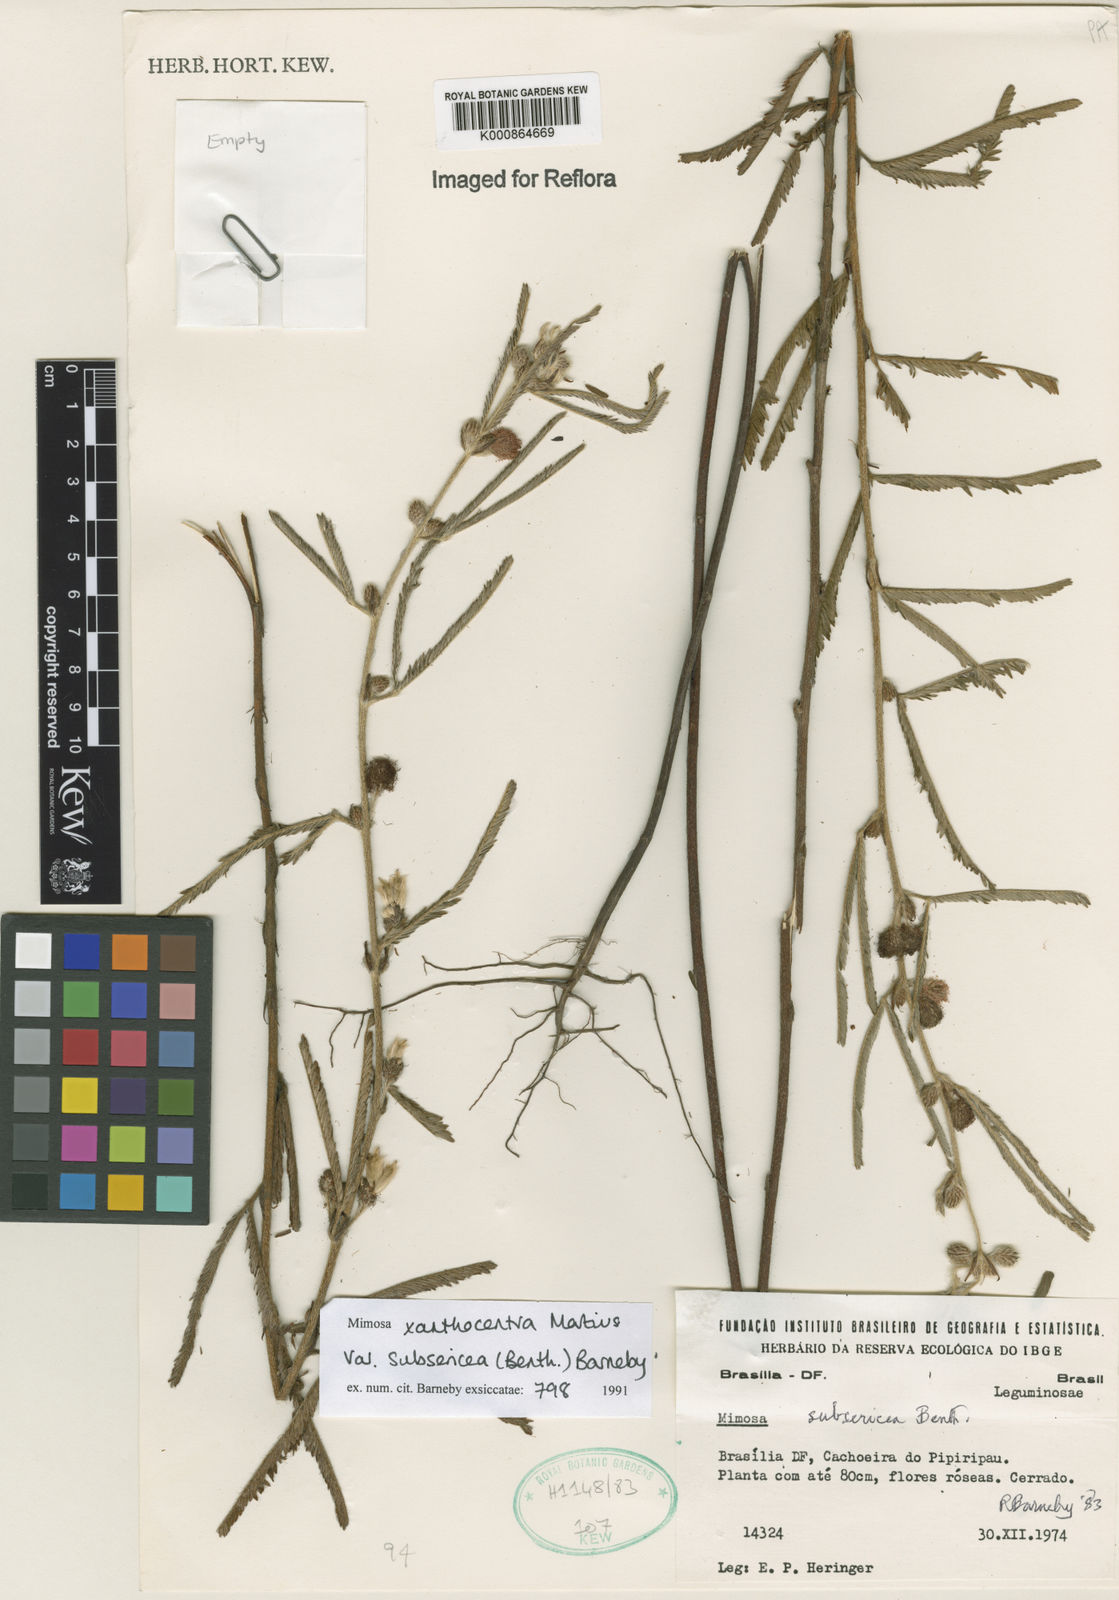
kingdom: Plantae
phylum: Tracheophyta
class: Magnoliopsida
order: Fabales
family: Fabaceae
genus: Mimosa
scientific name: Mimosa xanthocentra
